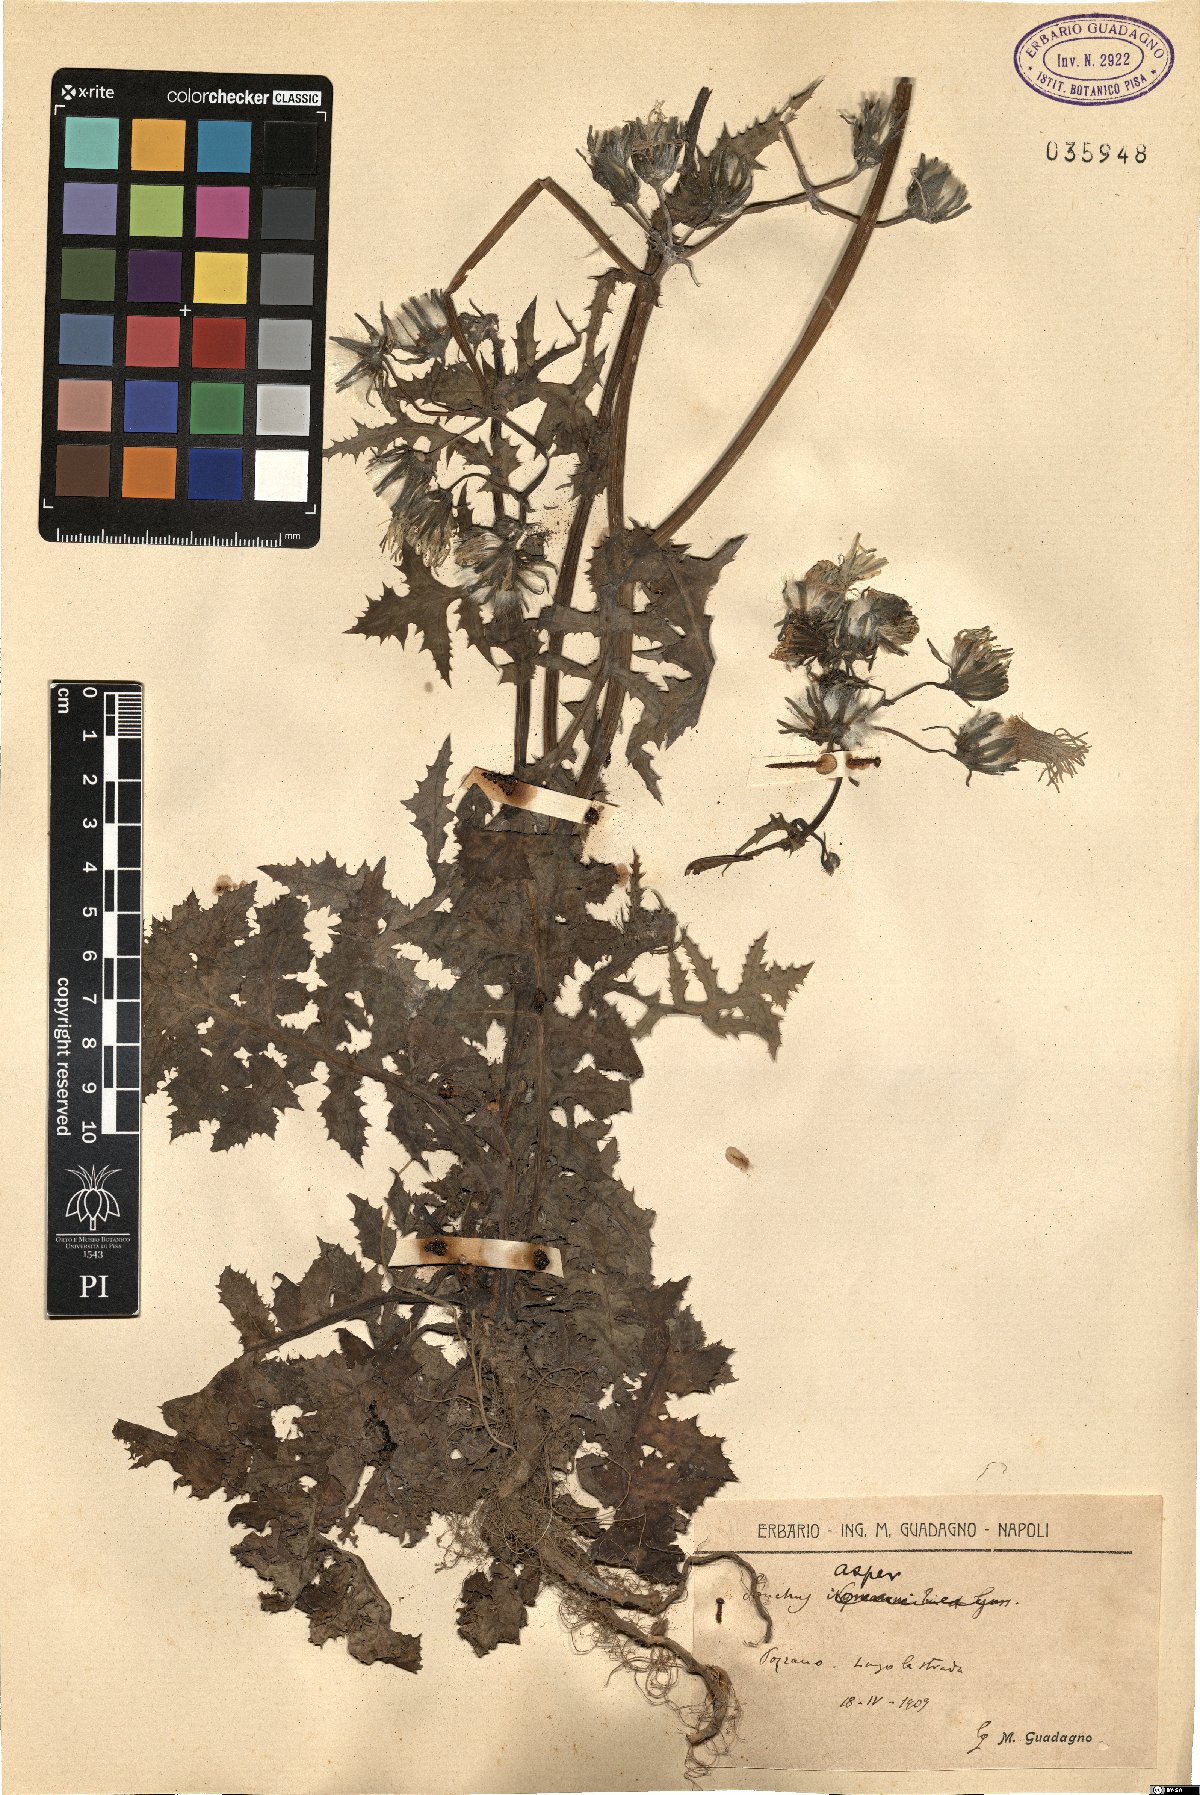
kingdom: Plantae
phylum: Tracheophyta
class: Magnoliopsida
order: Asterales
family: Asteraceae
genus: Sonchus
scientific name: Sonchus asper
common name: Prickly sow-thistle
